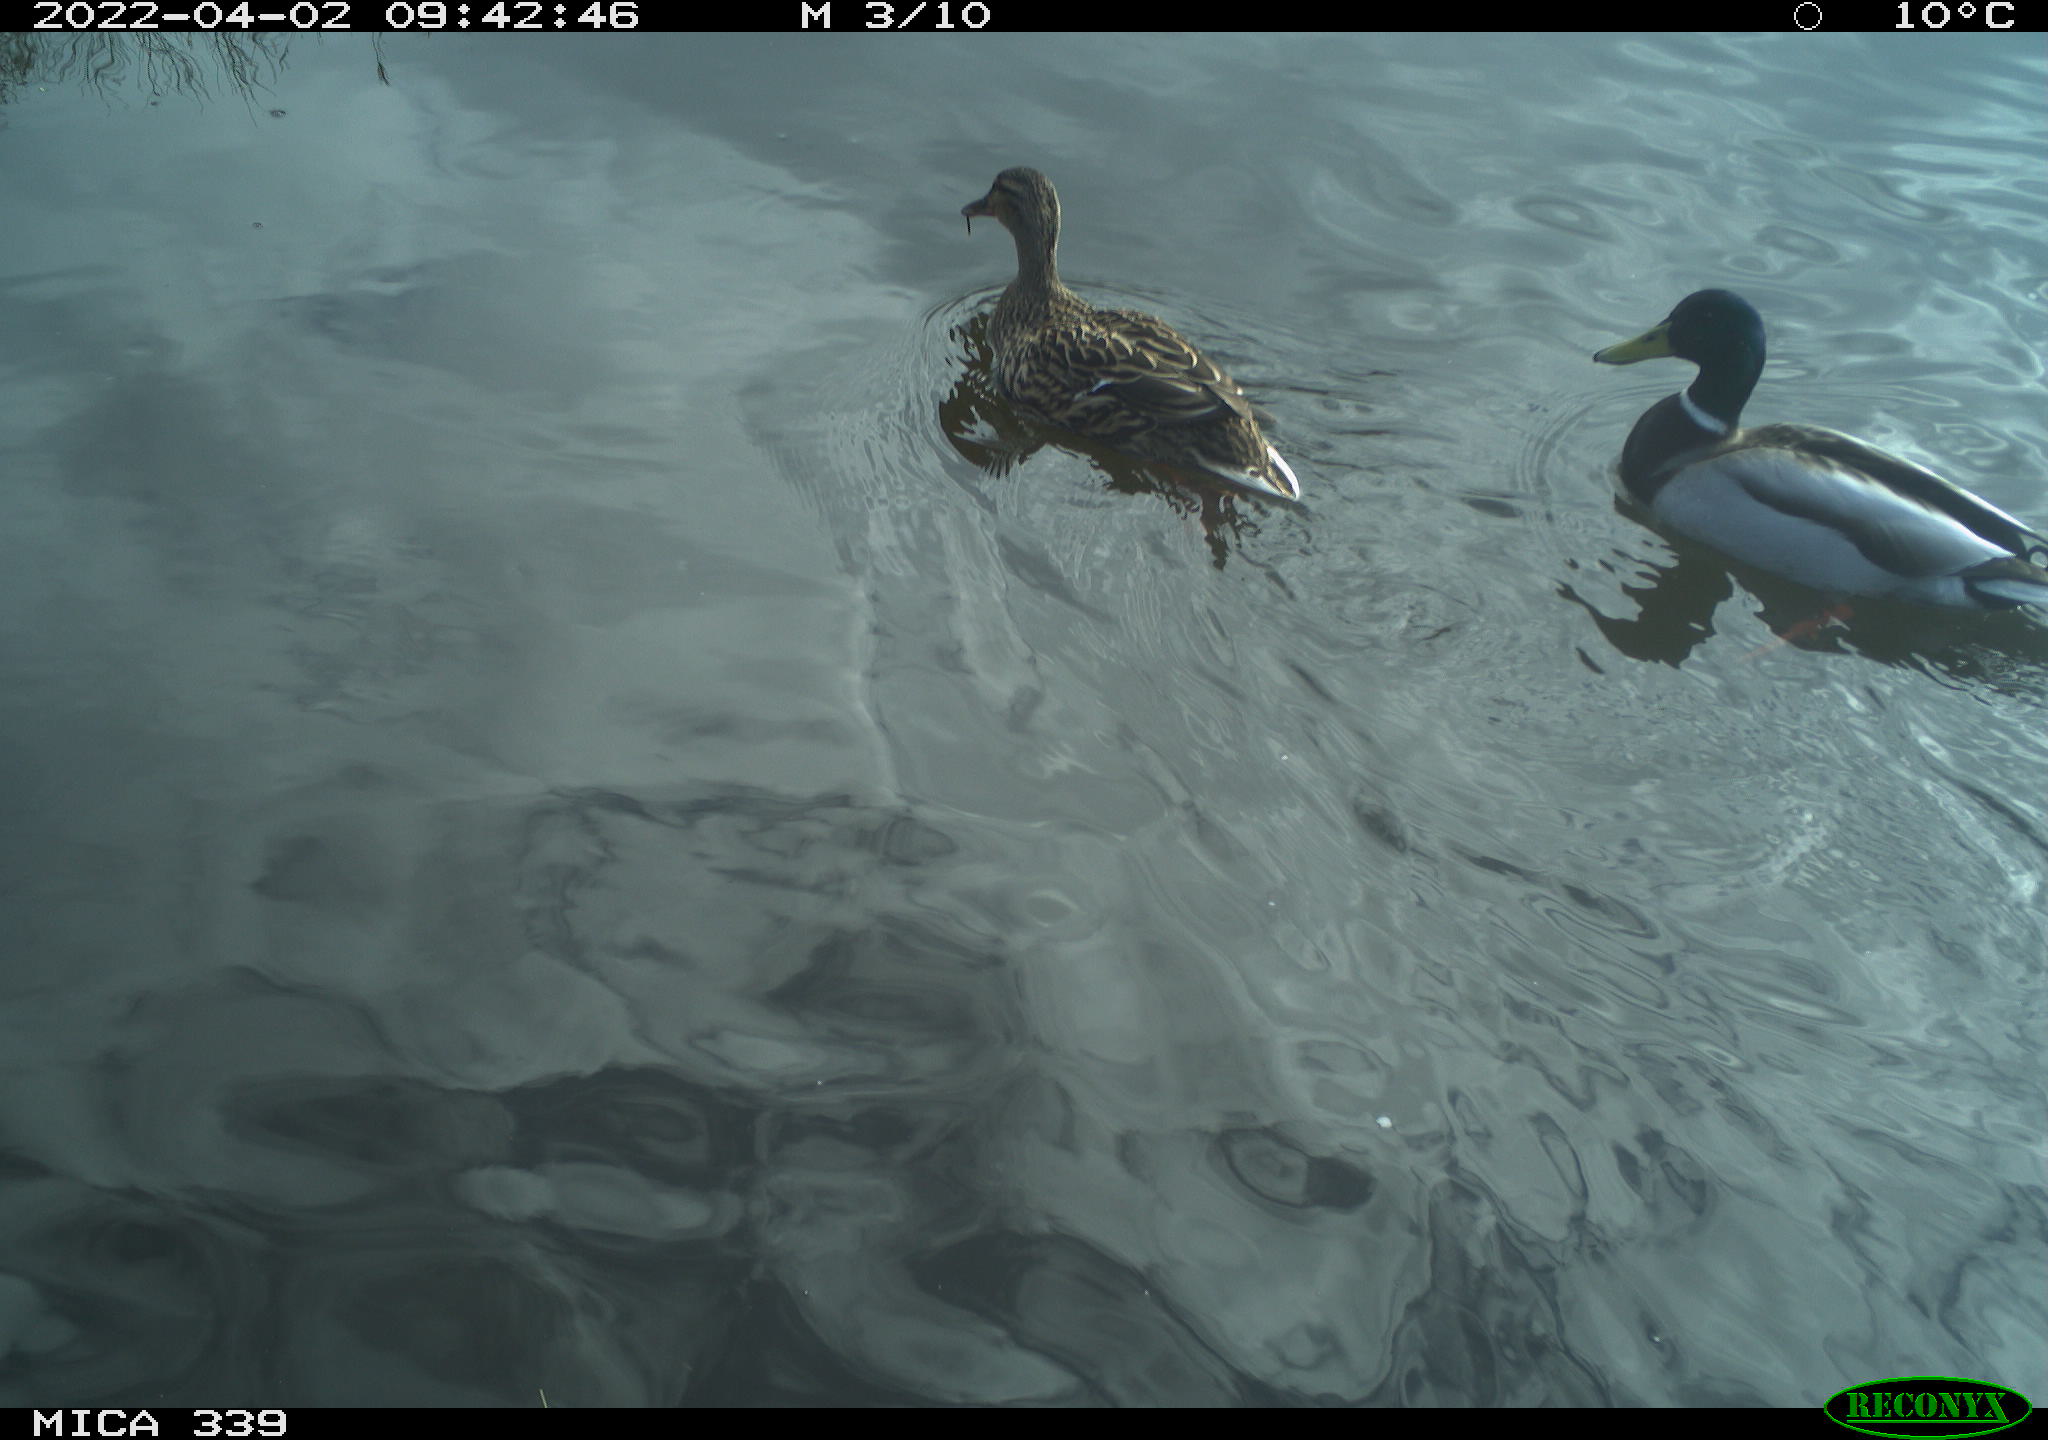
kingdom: Animalia
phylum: Chordata
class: Aves
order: Anseriformes
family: Anatidae
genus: Anas
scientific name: Anas platyrhynchos
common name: Mallard
